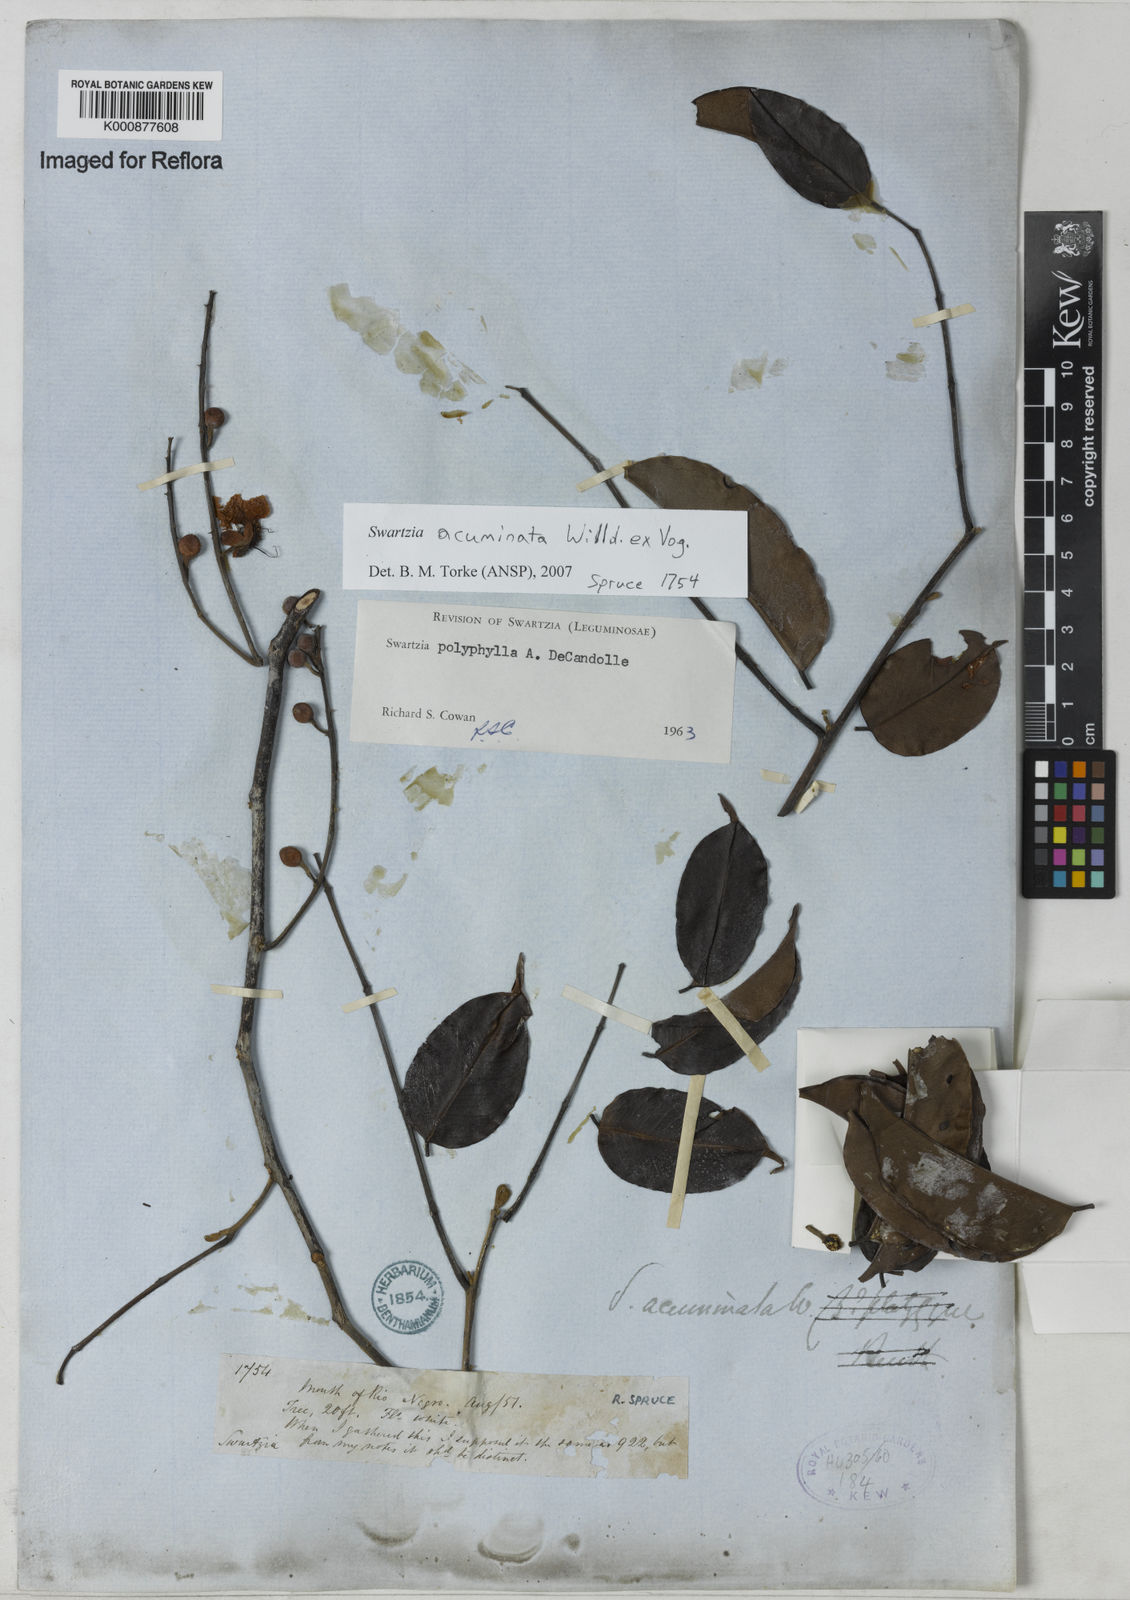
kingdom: Plantae
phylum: Tracheophyta
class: Magnoliopsida
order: Fabales
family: Fabaceae
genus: Swartzia
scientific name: Swartzia acuminata
